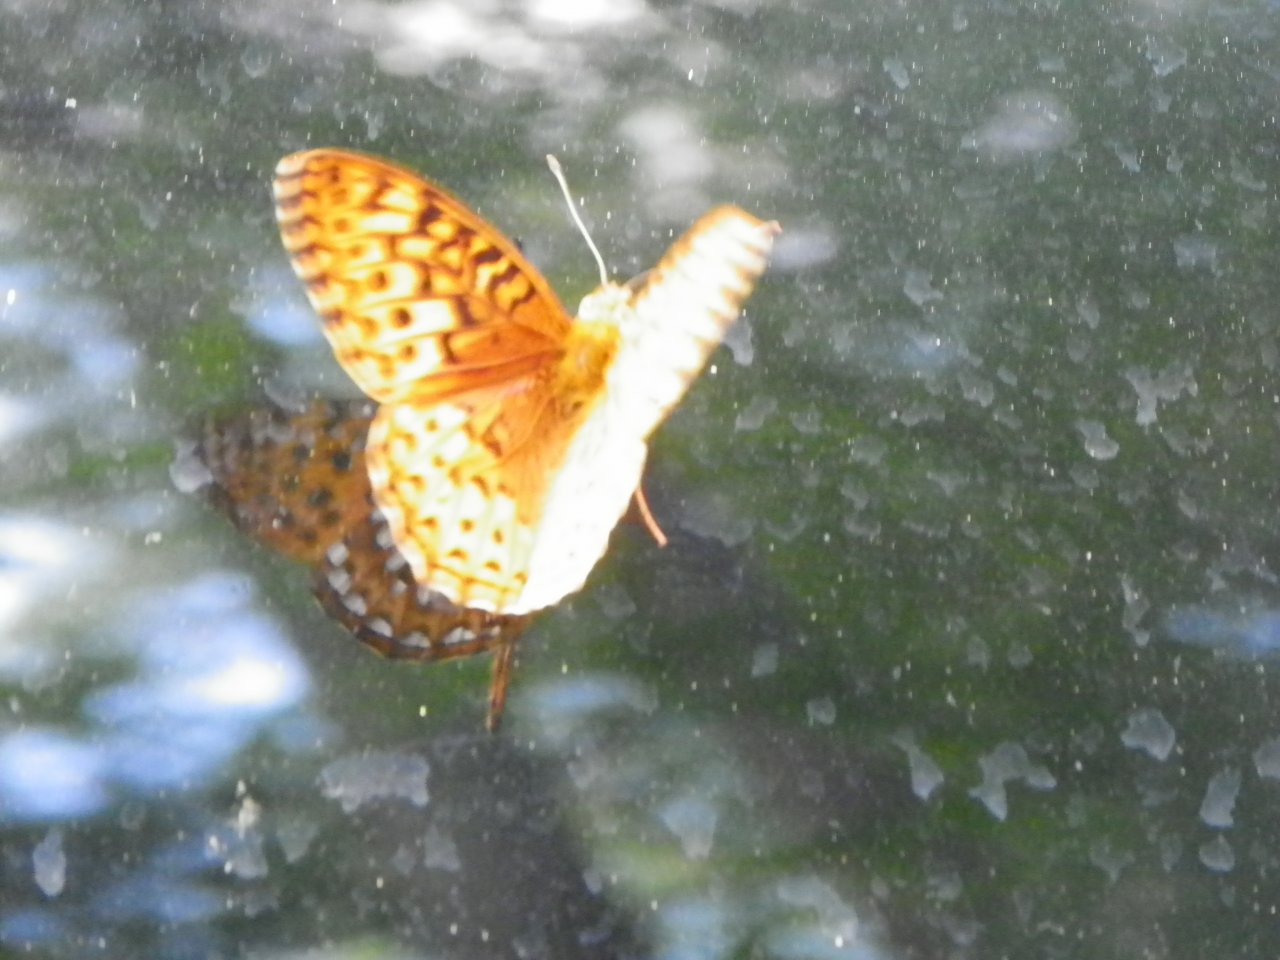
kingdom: Animalia
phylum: Arthropoda
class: Insecta
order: Lepidoptera
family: Nymphalidae
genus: Speyeria
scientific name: Speyeria aphrodite
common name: Aphrodite Fritillary
